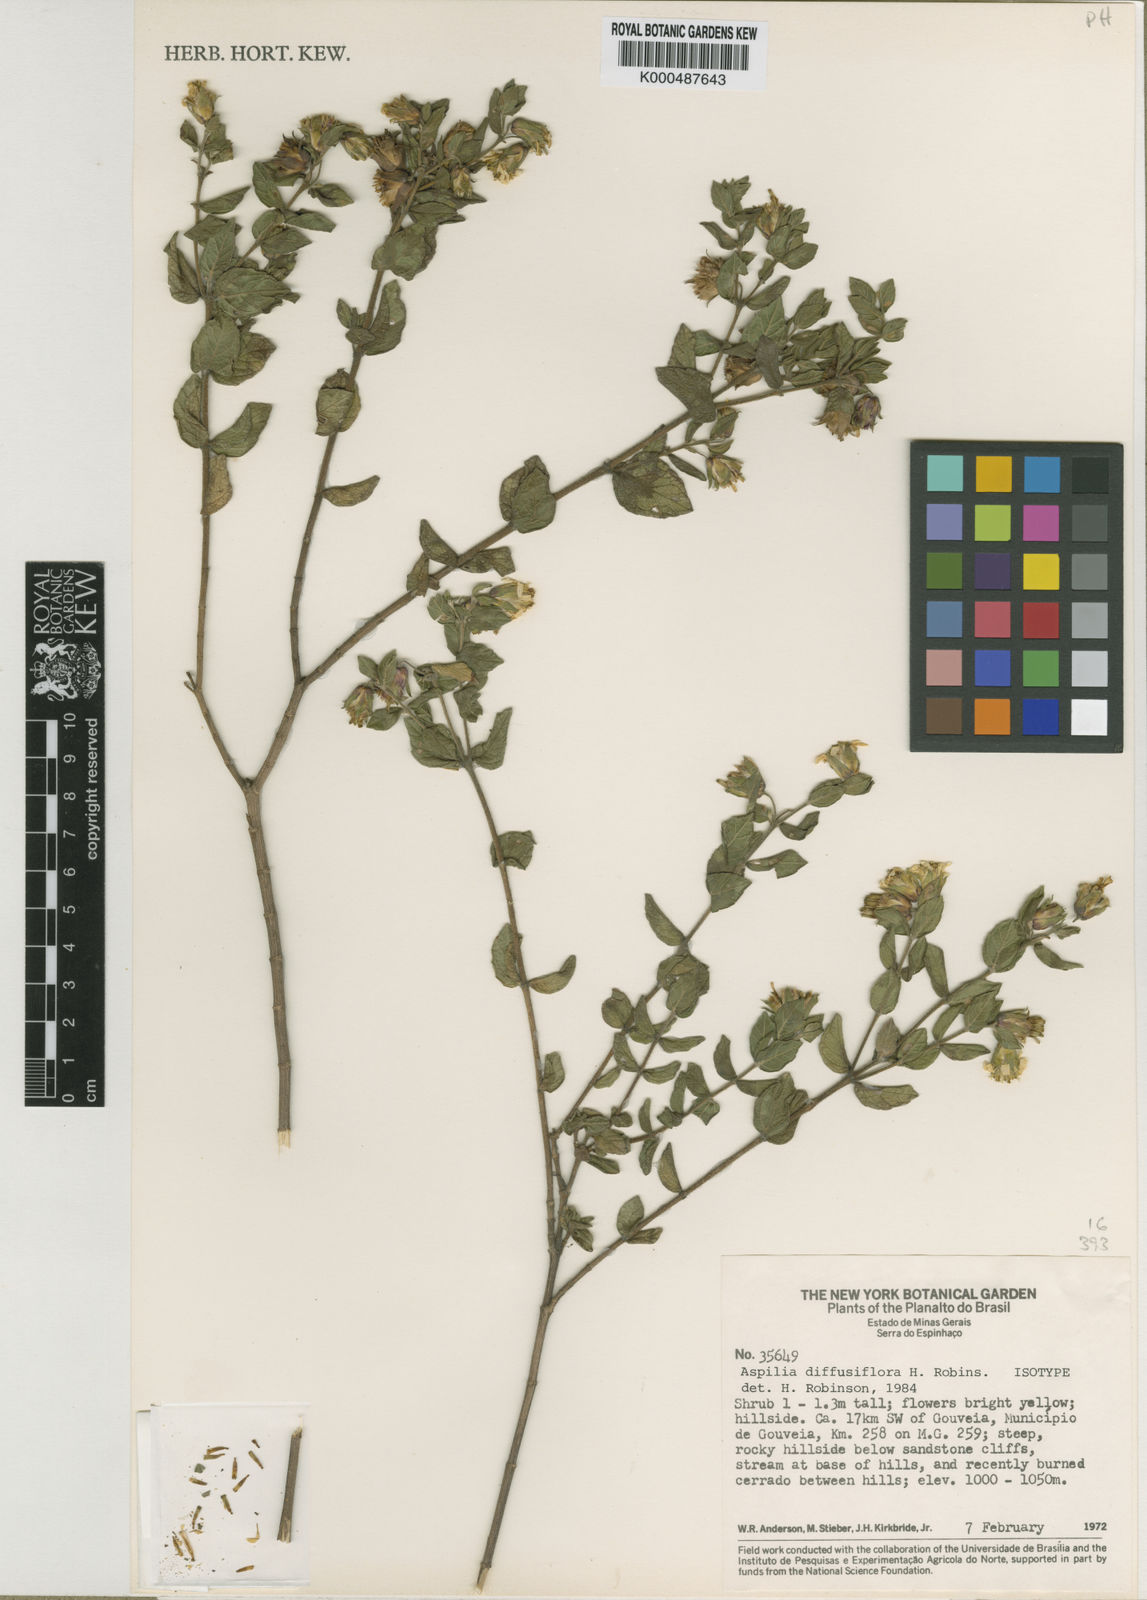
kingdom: Plantae
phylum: Tracheophyta
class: Magnoliopsida
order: Asterales
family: Asteraceae
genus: Wedelia
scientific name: Wedelia diffusiflora
